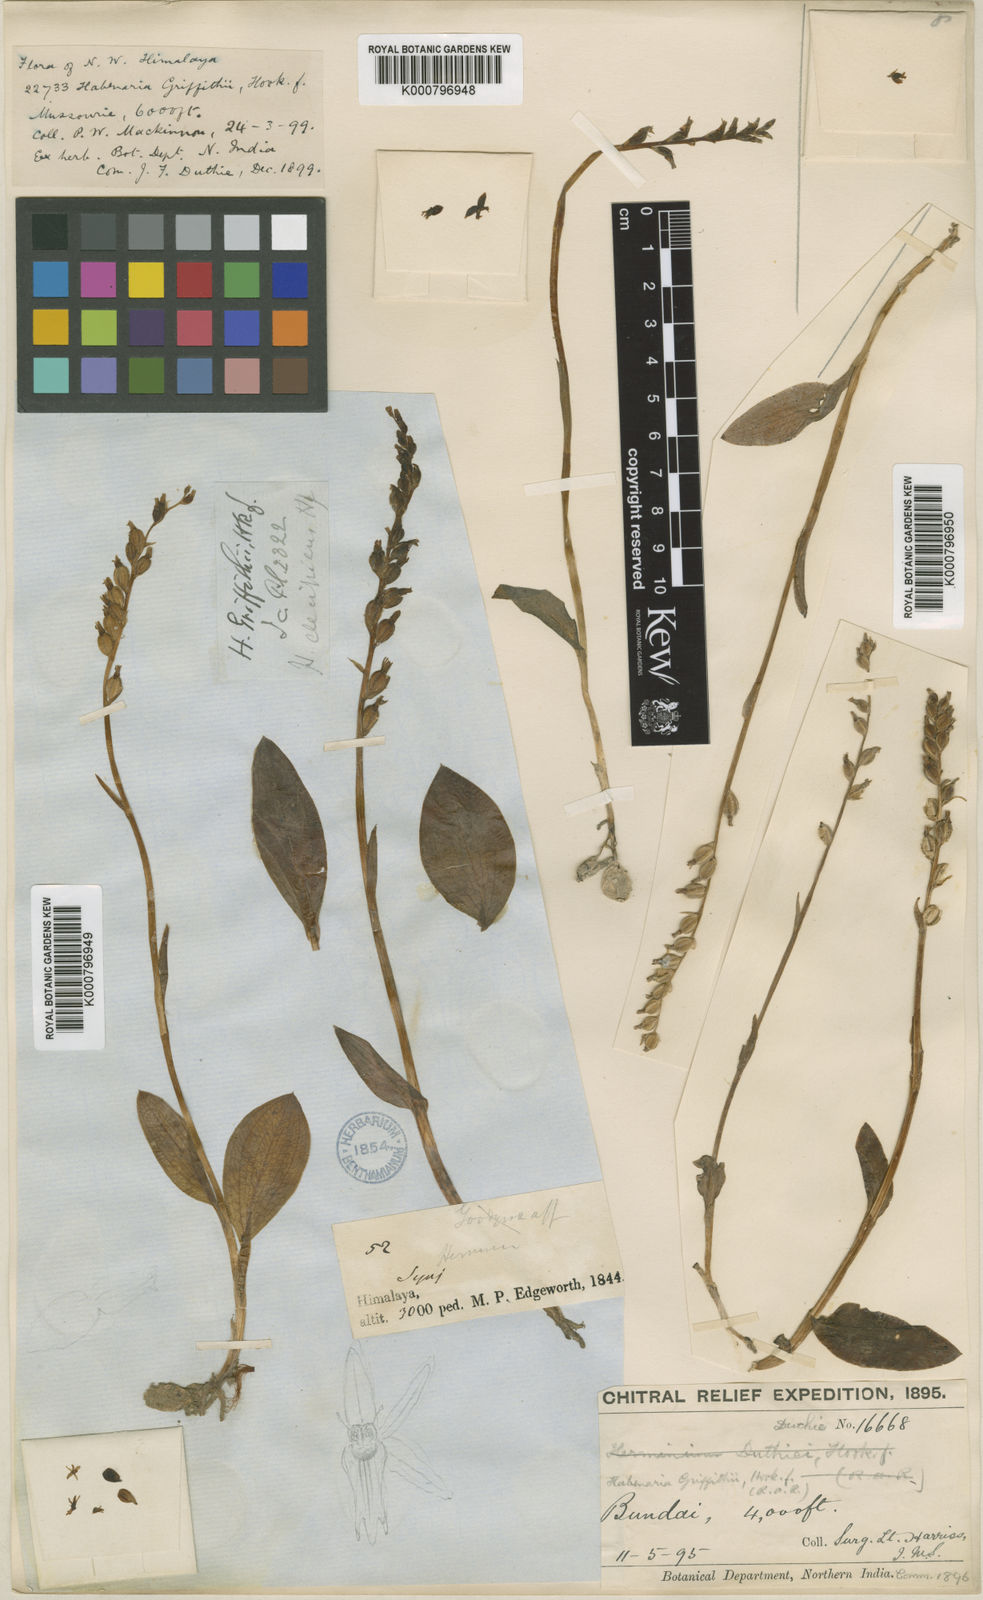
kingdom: Plantae
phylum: Tracheophyta
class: Liliopsida
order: Asparagales
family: Orchidaceae
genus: Gennaria
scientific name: Gennaria griffithii
